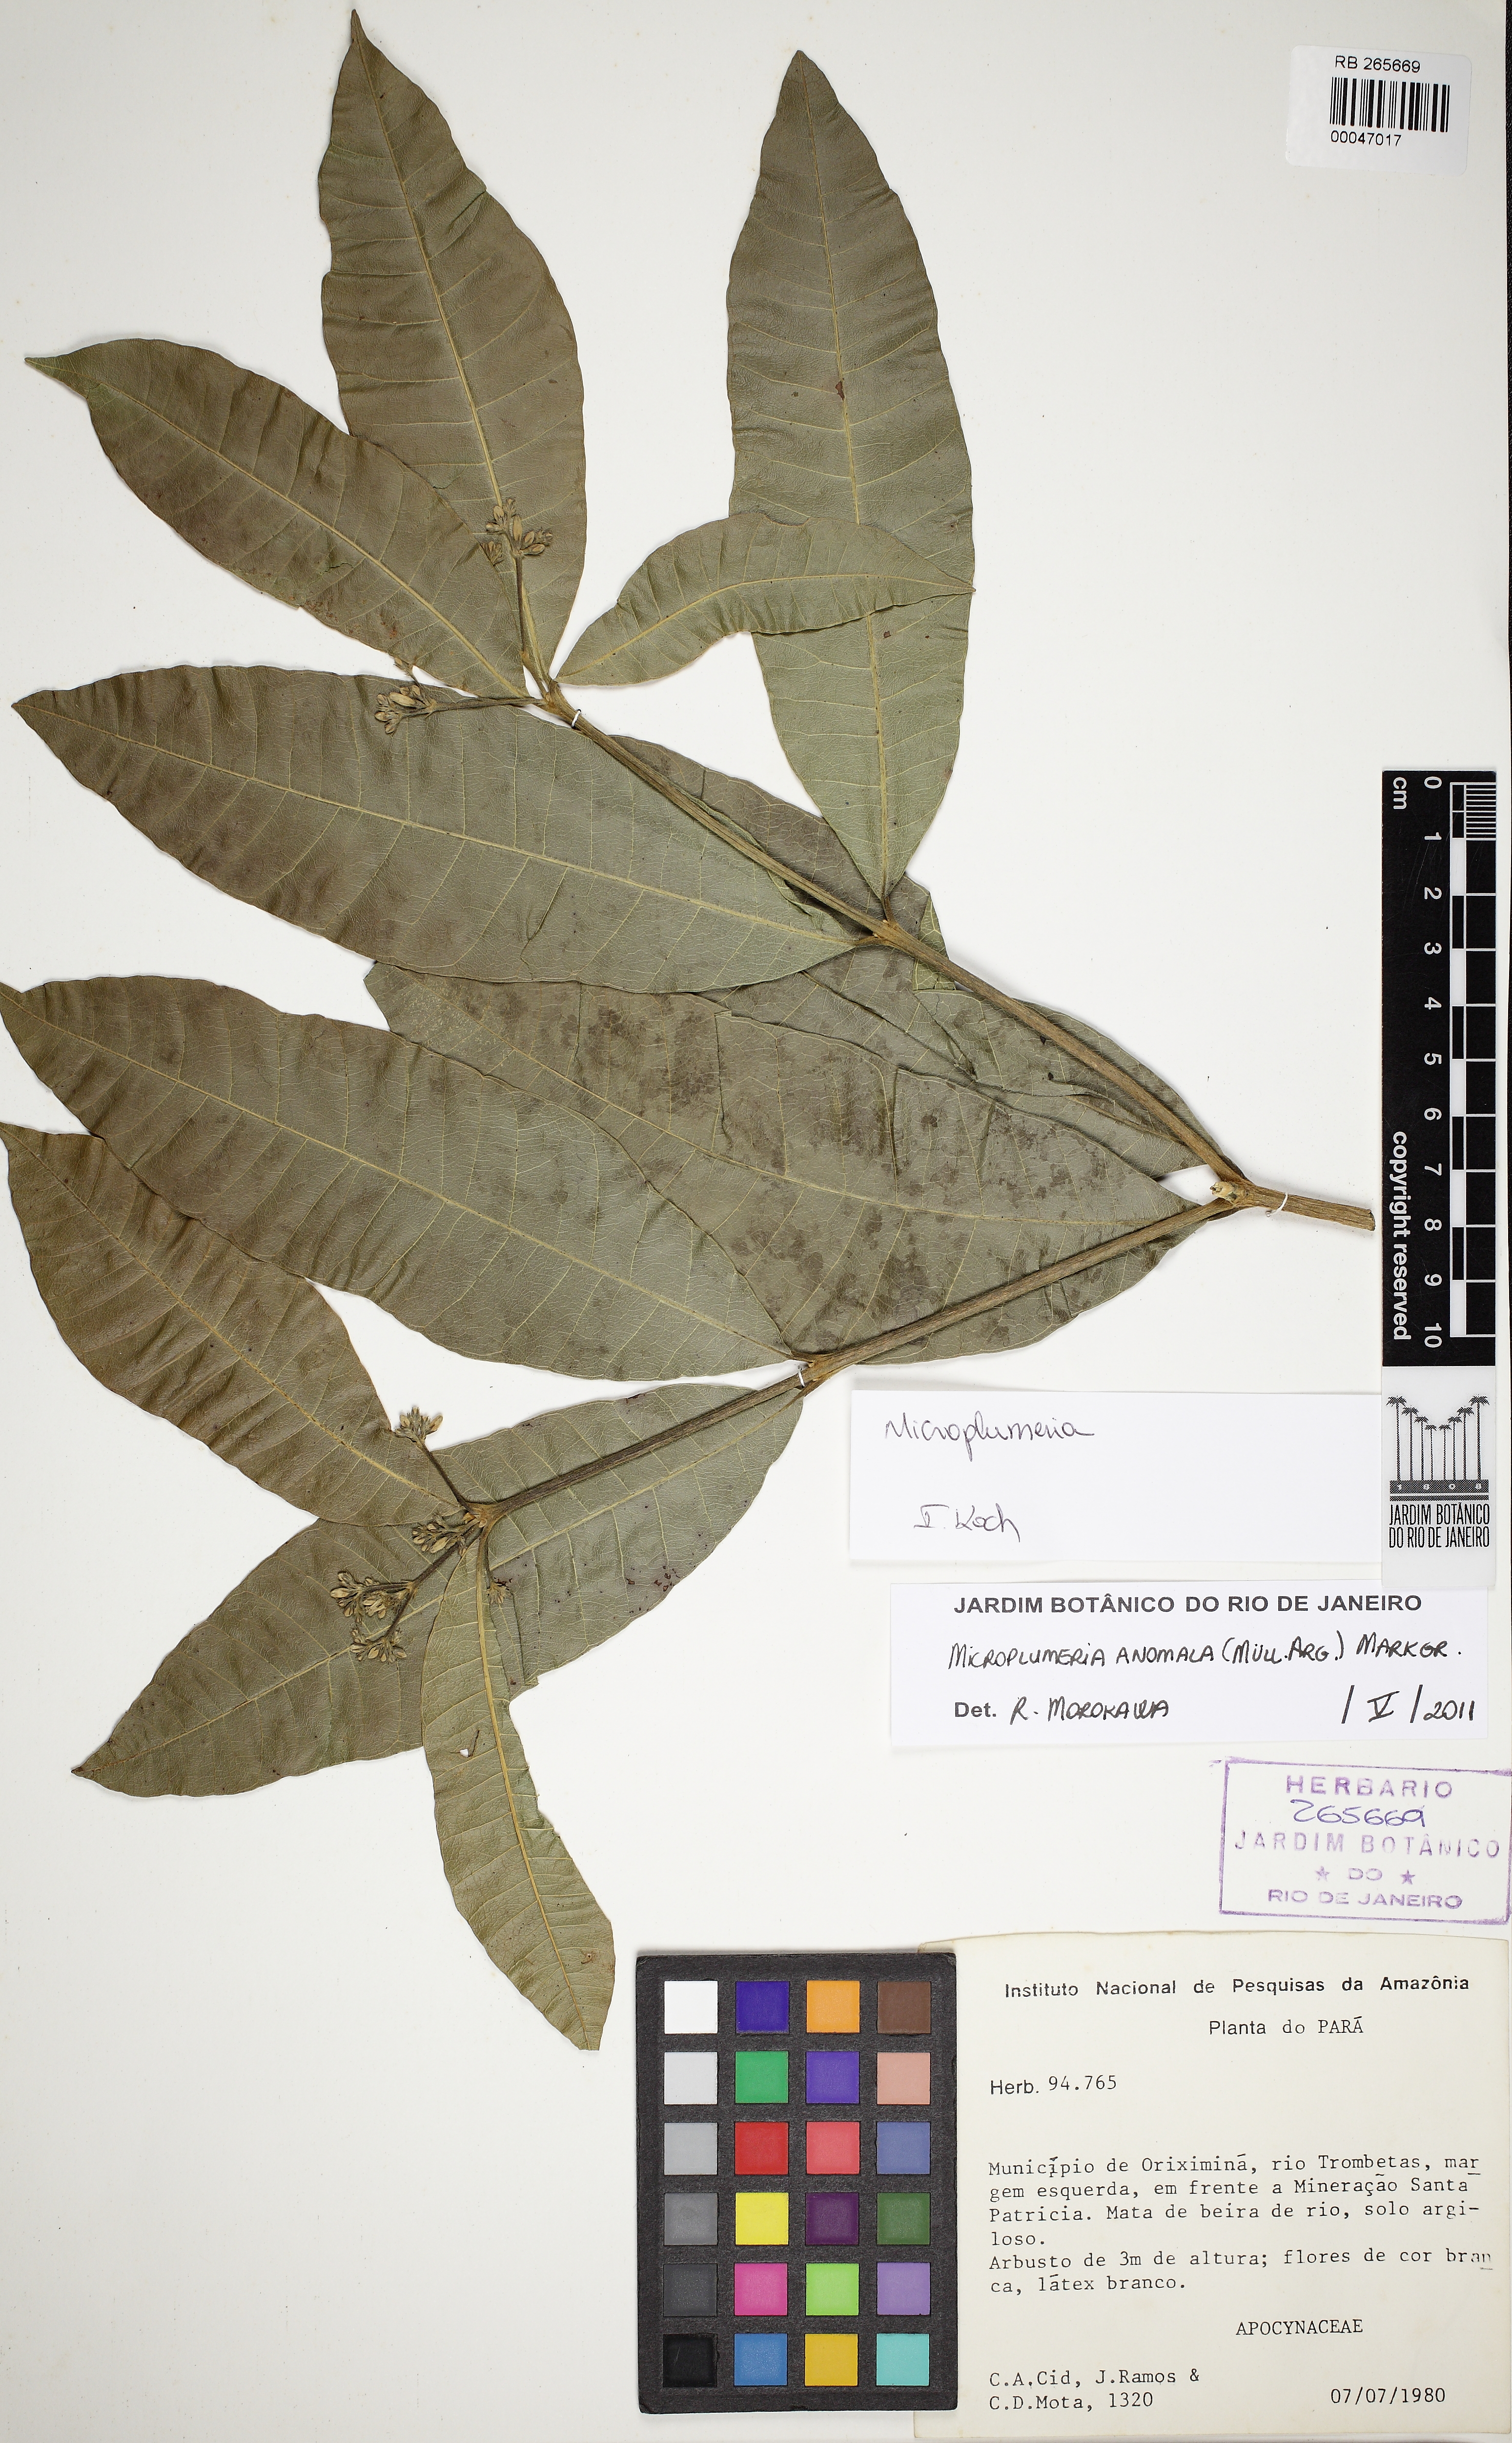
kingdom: Plantae
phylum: Tracheophyta
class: Magnoliopsida
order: Gentianales
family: Apocynaceae
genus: Microplumeria
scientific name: Microplumeria anomala
